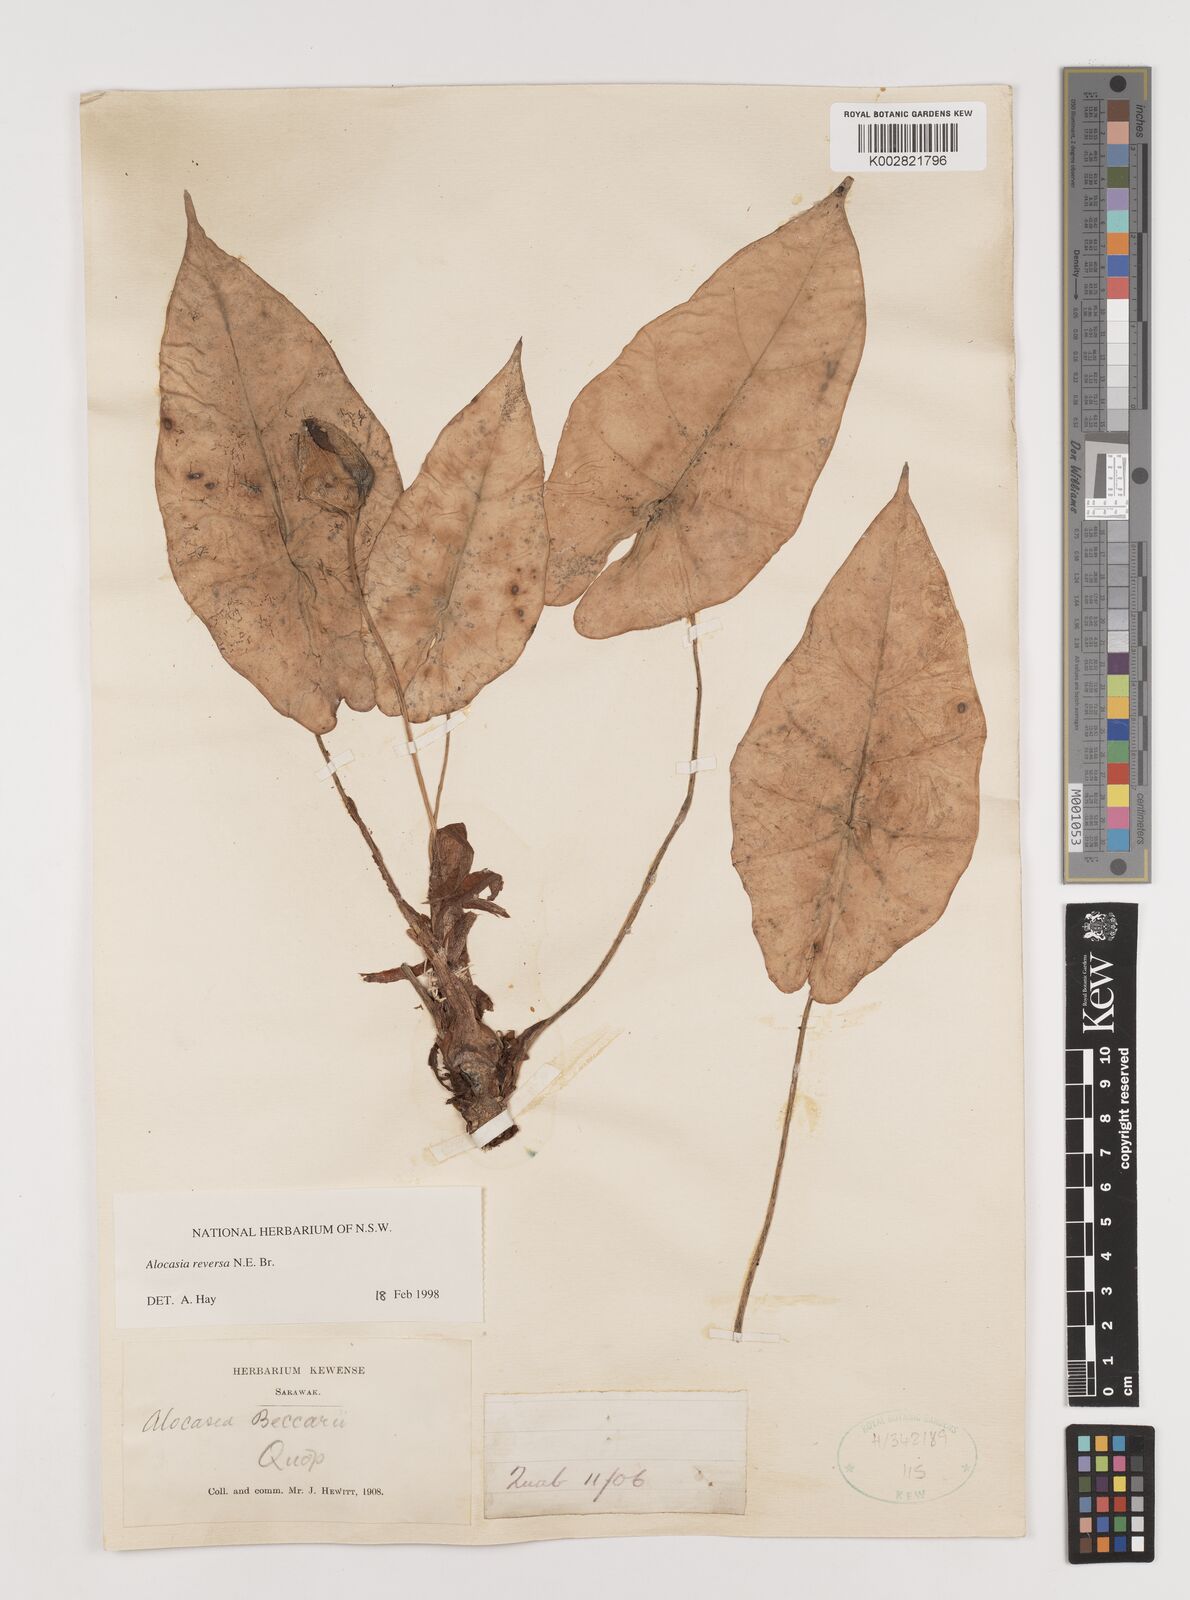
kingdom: Plantae
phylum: Tracheophyta
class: Liliopsida
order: Alismatales
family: Araceae
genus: Alocasia
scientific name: Alocasia reversa
